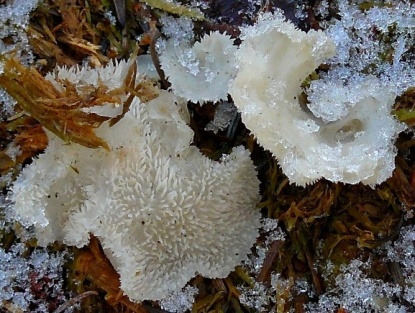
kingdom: Fungi
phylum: Basidiomycota
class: Agaricomycetes
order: Auriculariales
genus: Pseudohydnum
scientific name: Pseudohydnum gelatinosum
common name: bævretand
